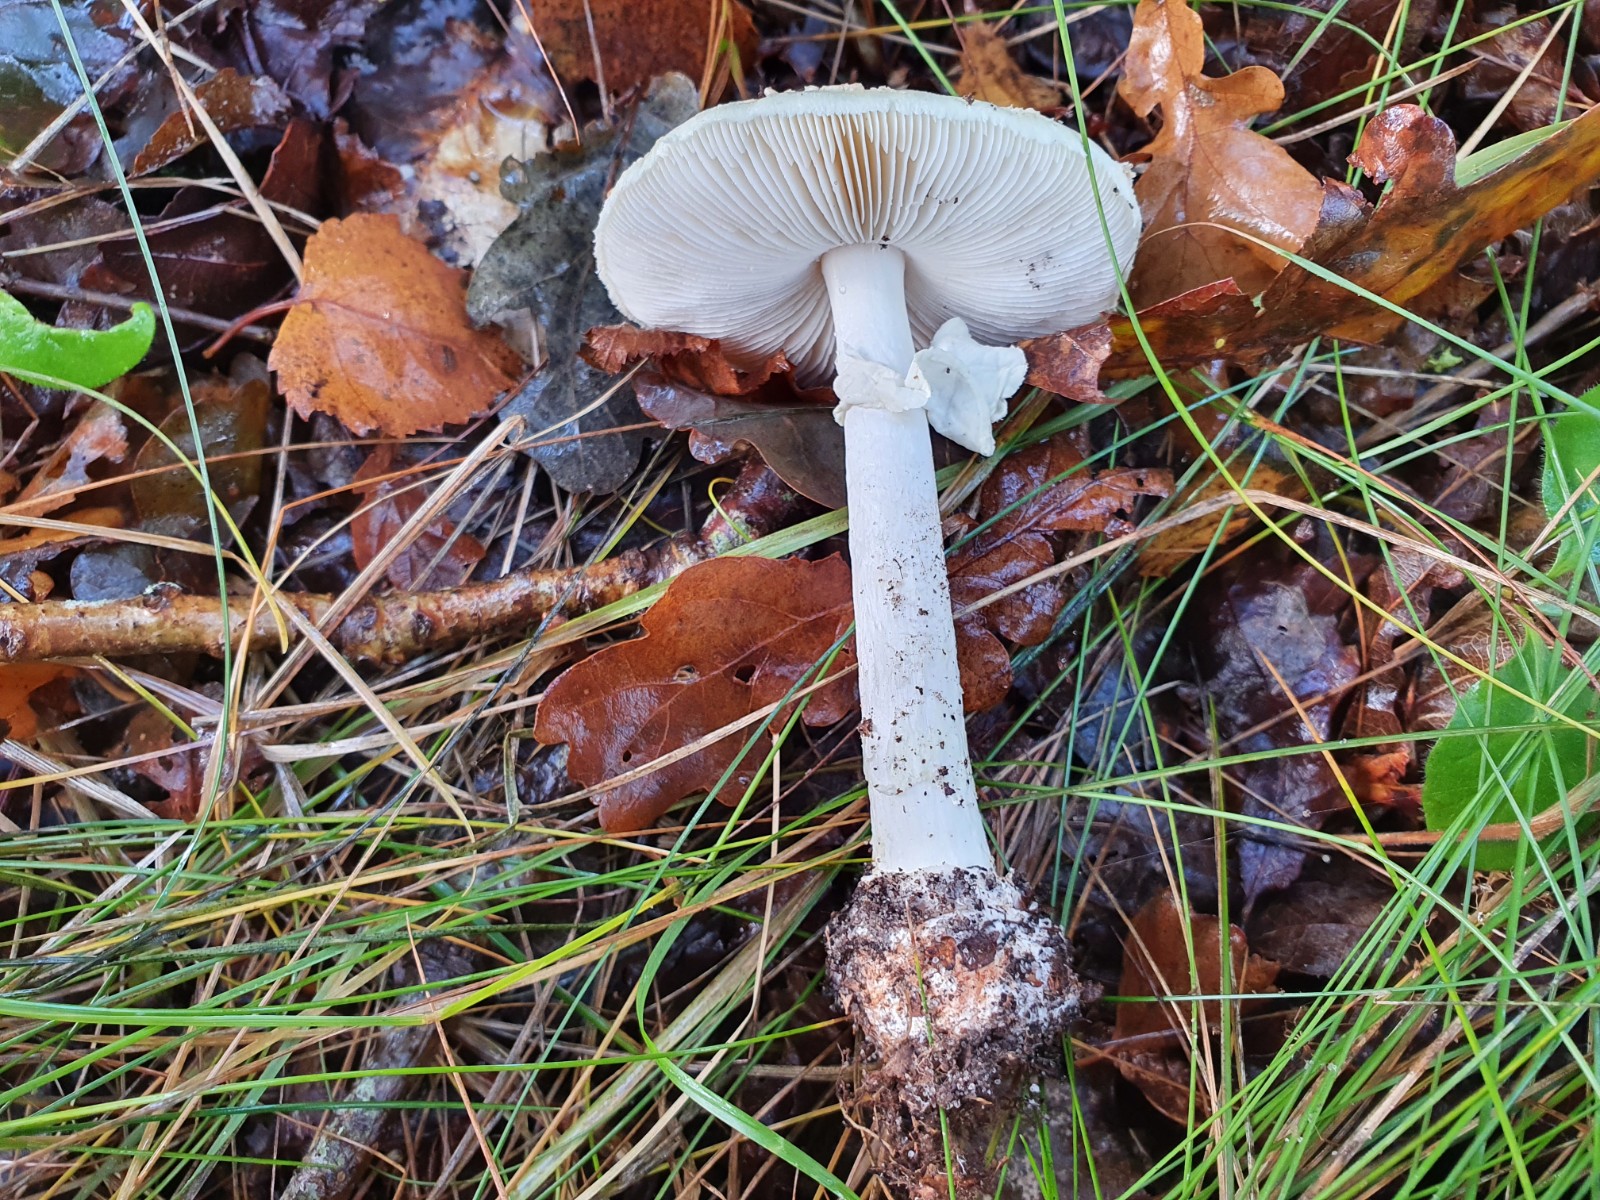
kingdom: Fungi
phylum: Basidiomycota
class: Agaricomycetes
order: Agaricales
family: Amanitaceae
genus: Amanita
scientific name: Amanita citrina
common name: kugleknoldet fluesvamp
